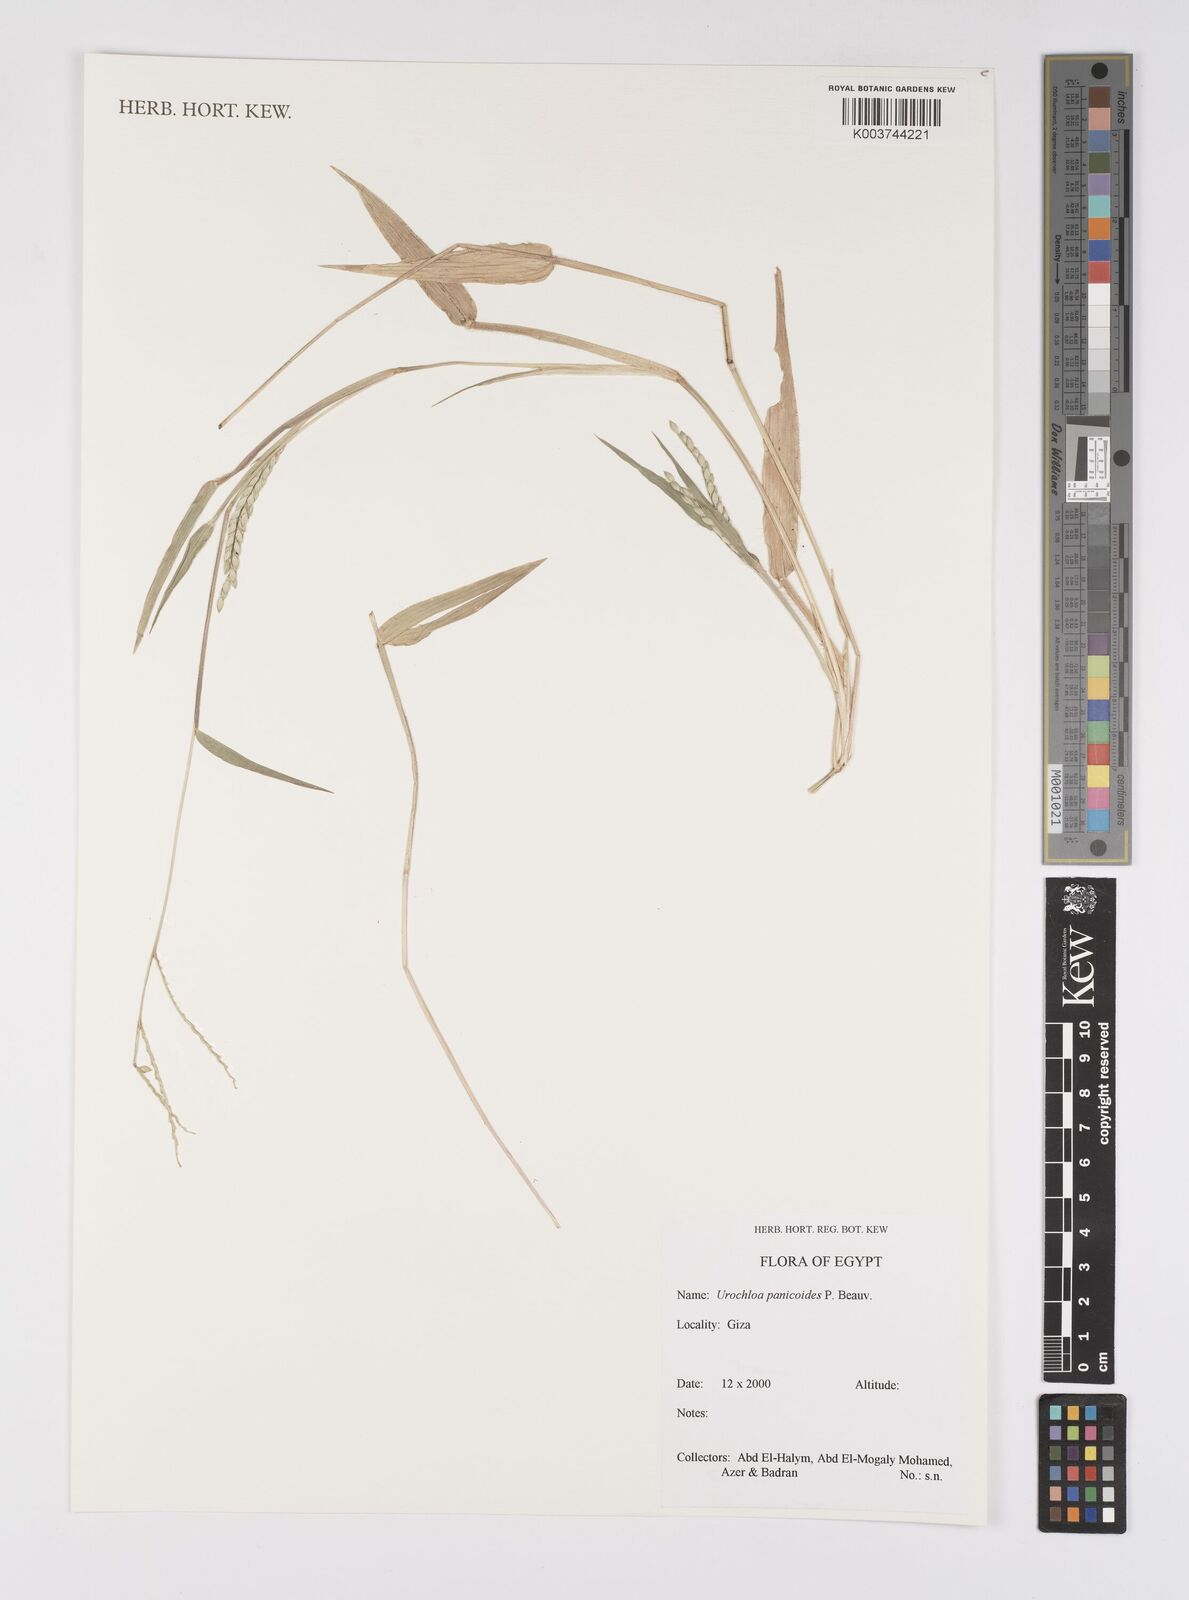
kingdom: Plantae
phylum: Tracheophyta
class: Liliopsida
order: Poales
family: Poaceae
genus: Urochloa
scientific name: Urochloa panicoides
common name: Sharp-flowered signal-grass
